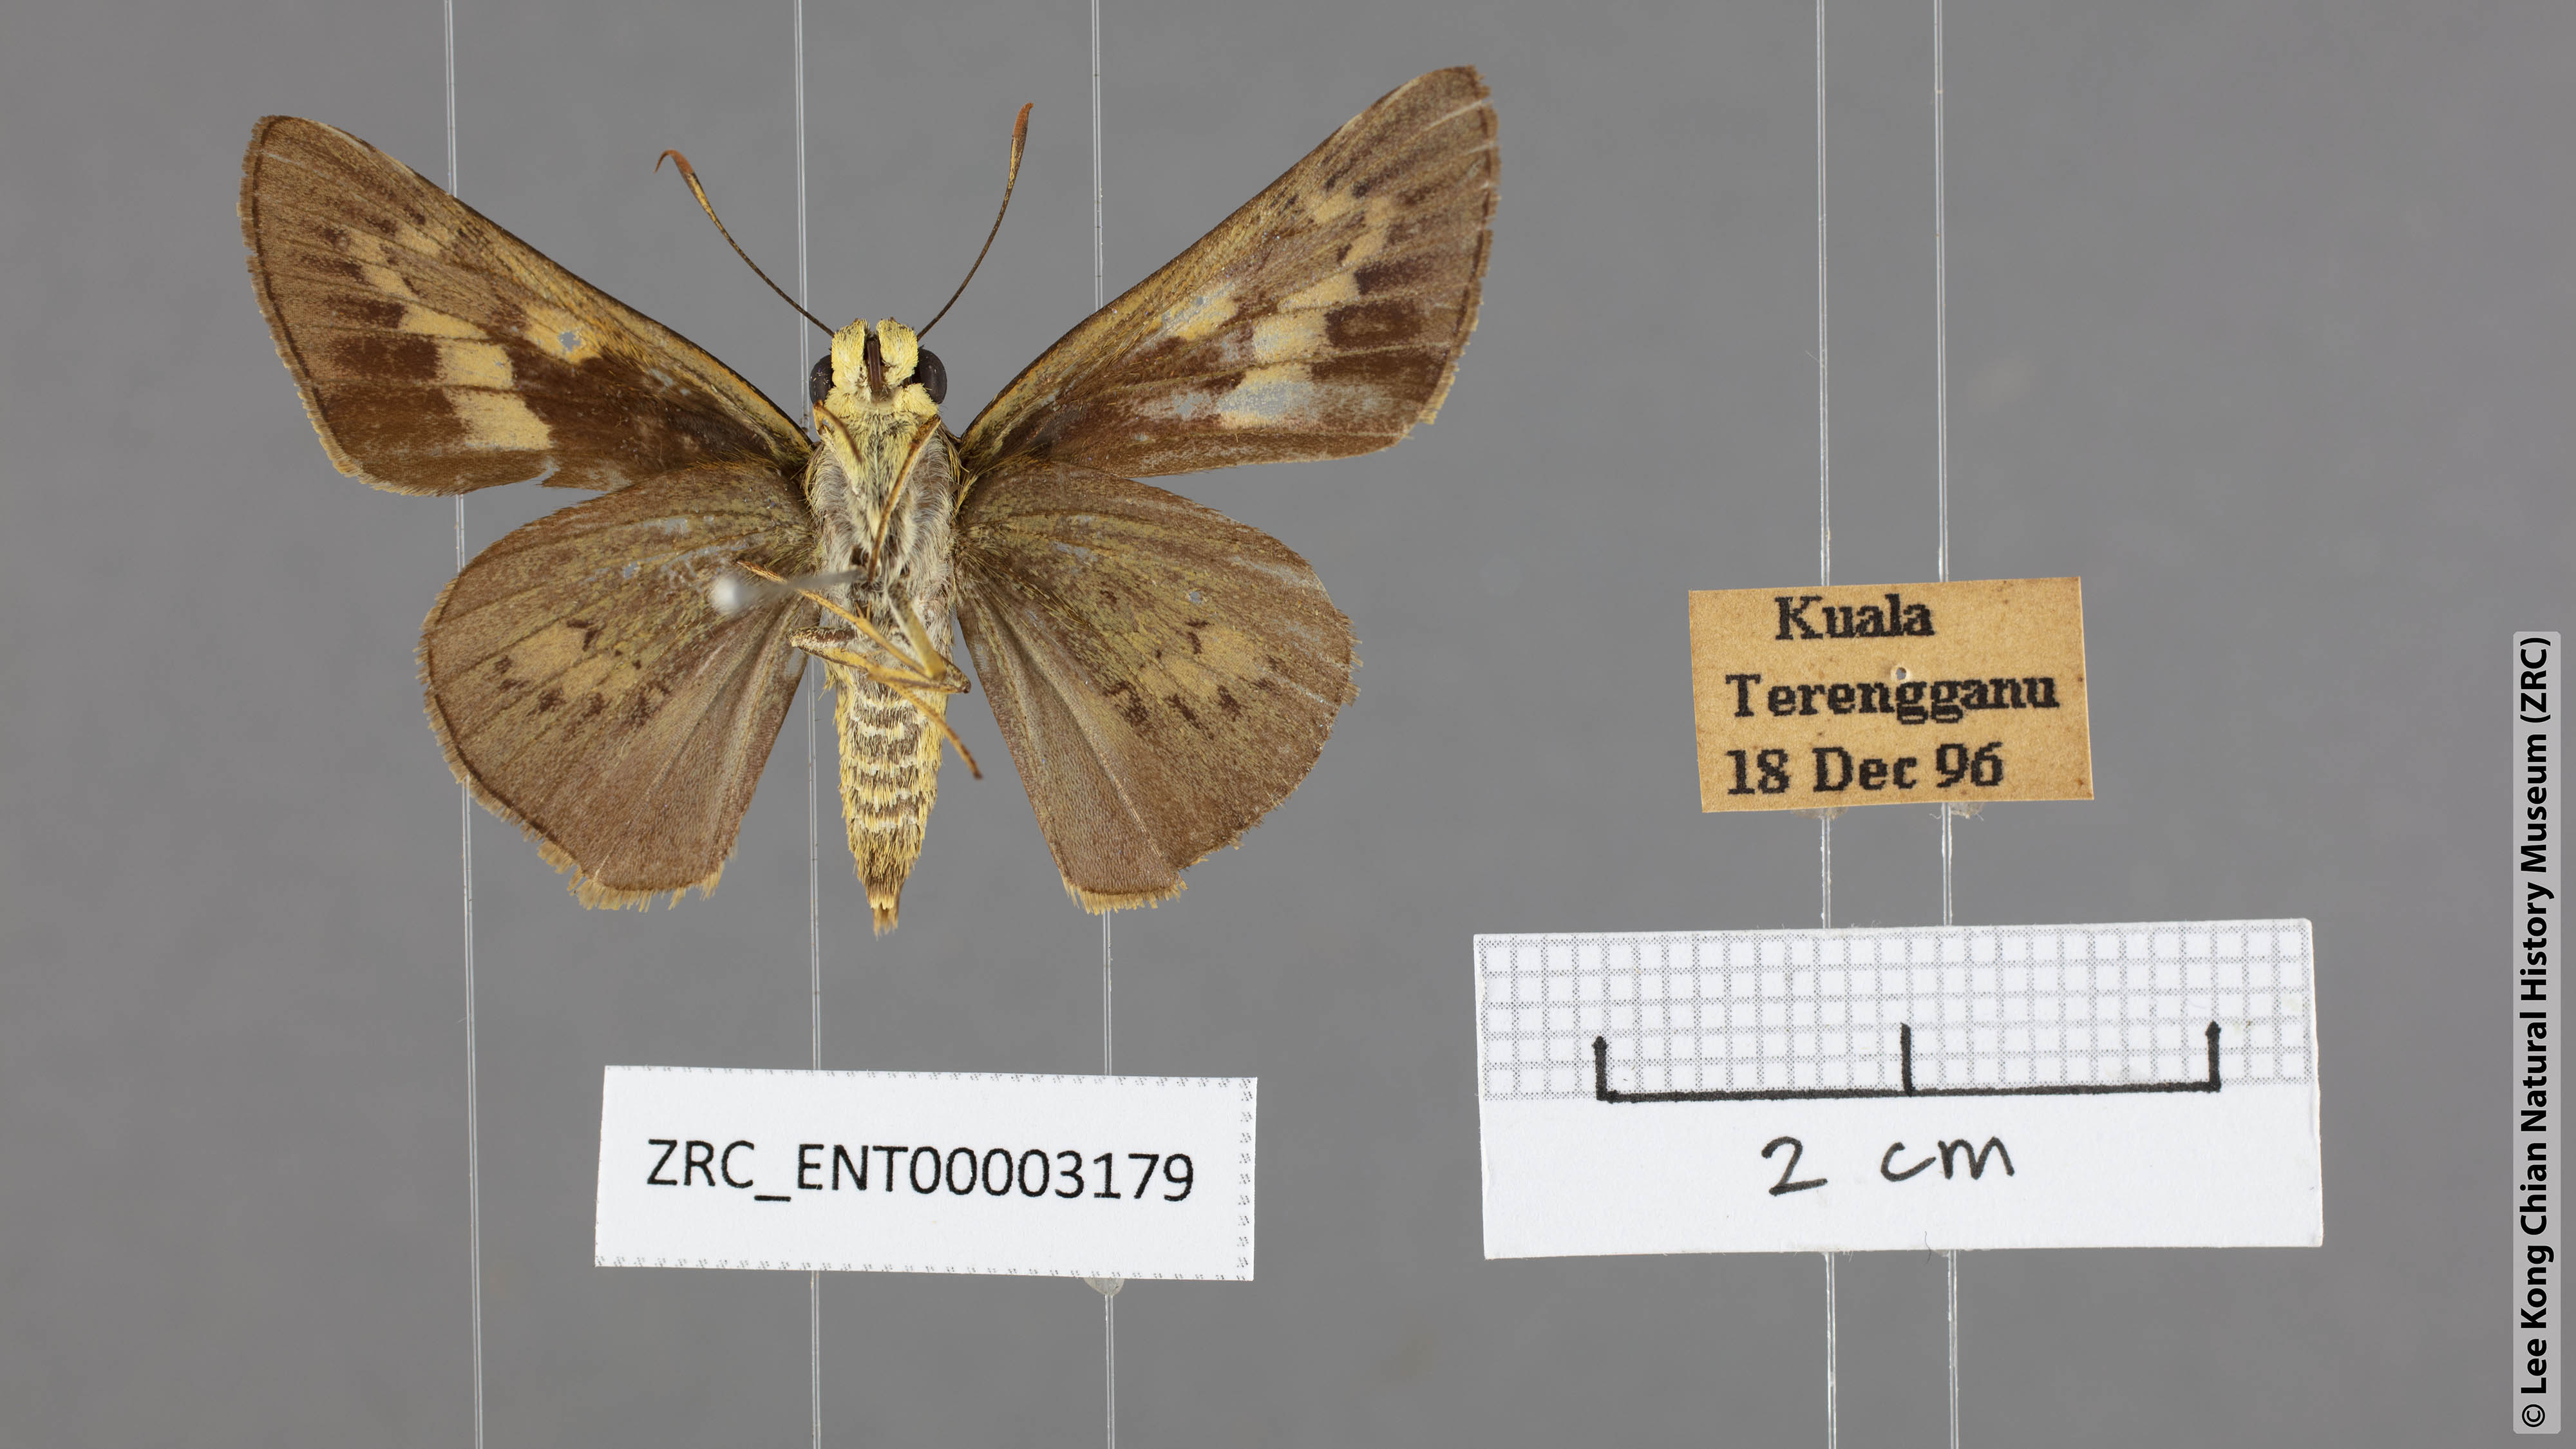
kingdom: Animalia
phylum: Arthropoda
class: Insecta
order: Lepidoptera
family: Hesperiidae
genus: Cephrenes
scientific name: Cephrenes
